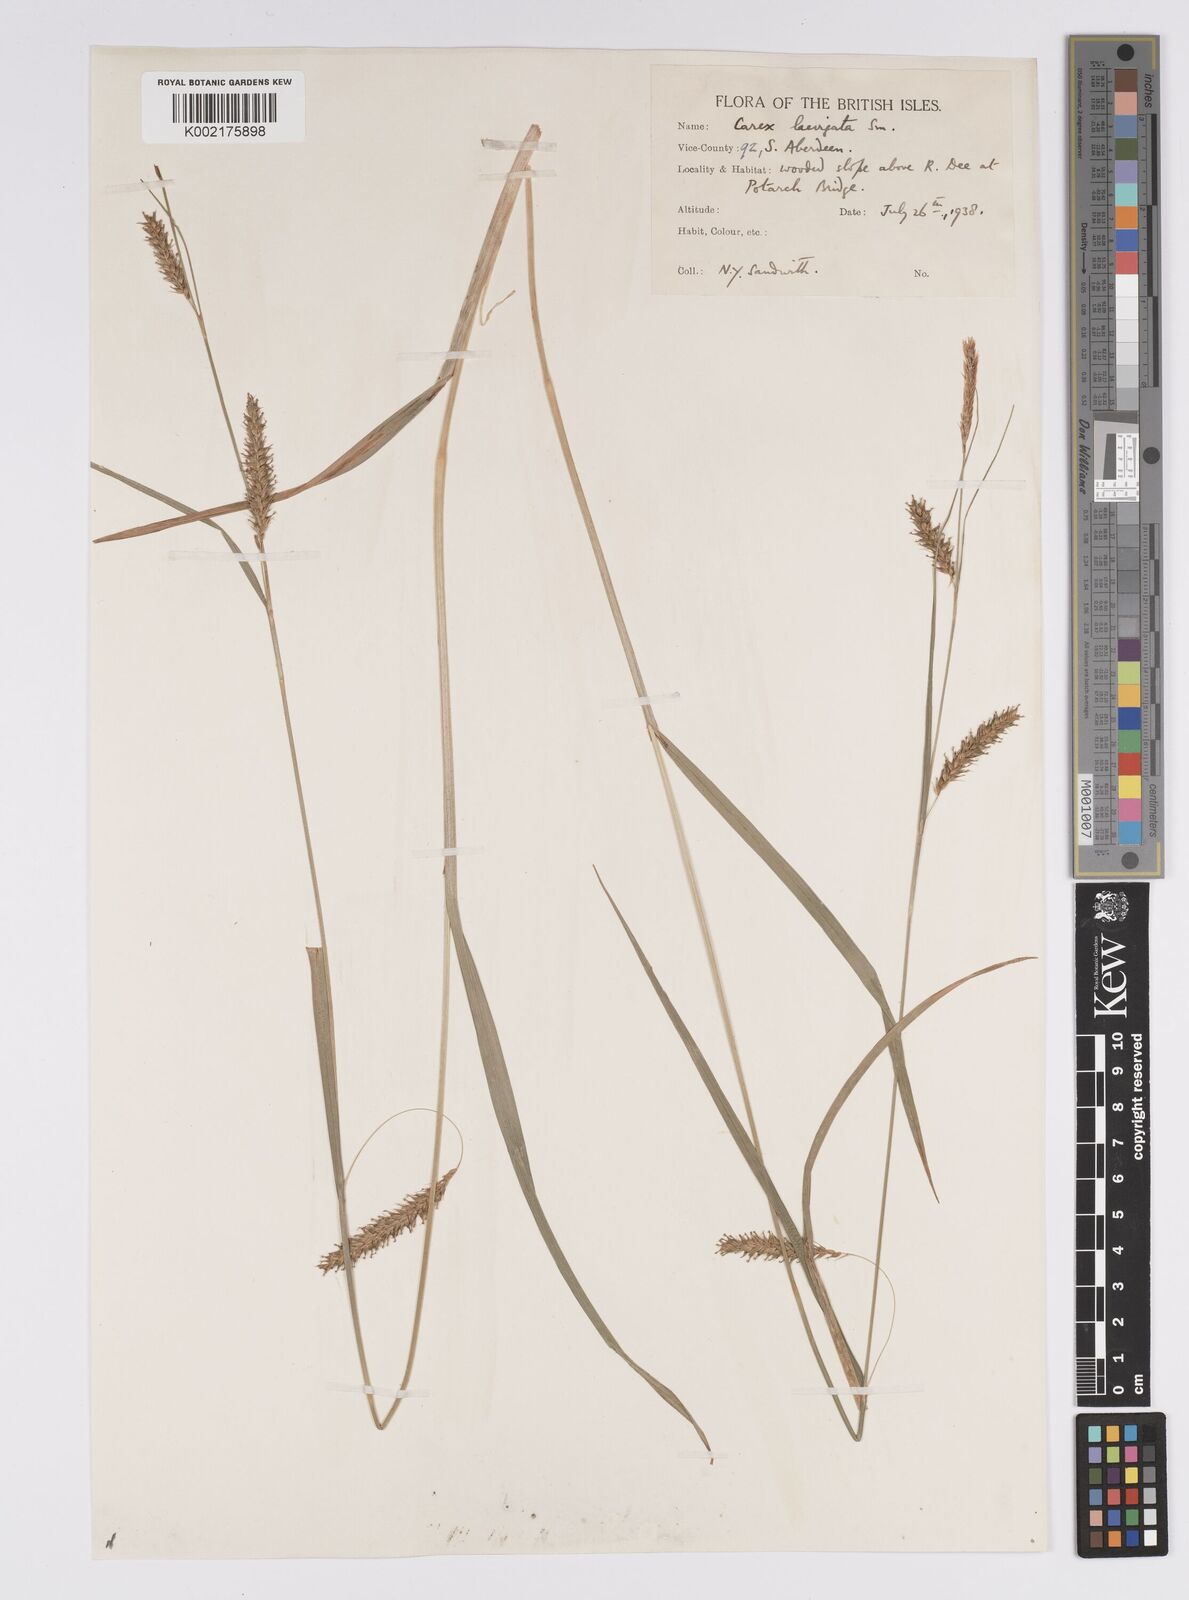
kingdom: Plantae
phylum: Tracheophyta
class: Liliopsida
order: Poales
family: Cyperaceae
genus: Carex
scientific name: Carex laevigata
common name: Smooth-stalked sedge
